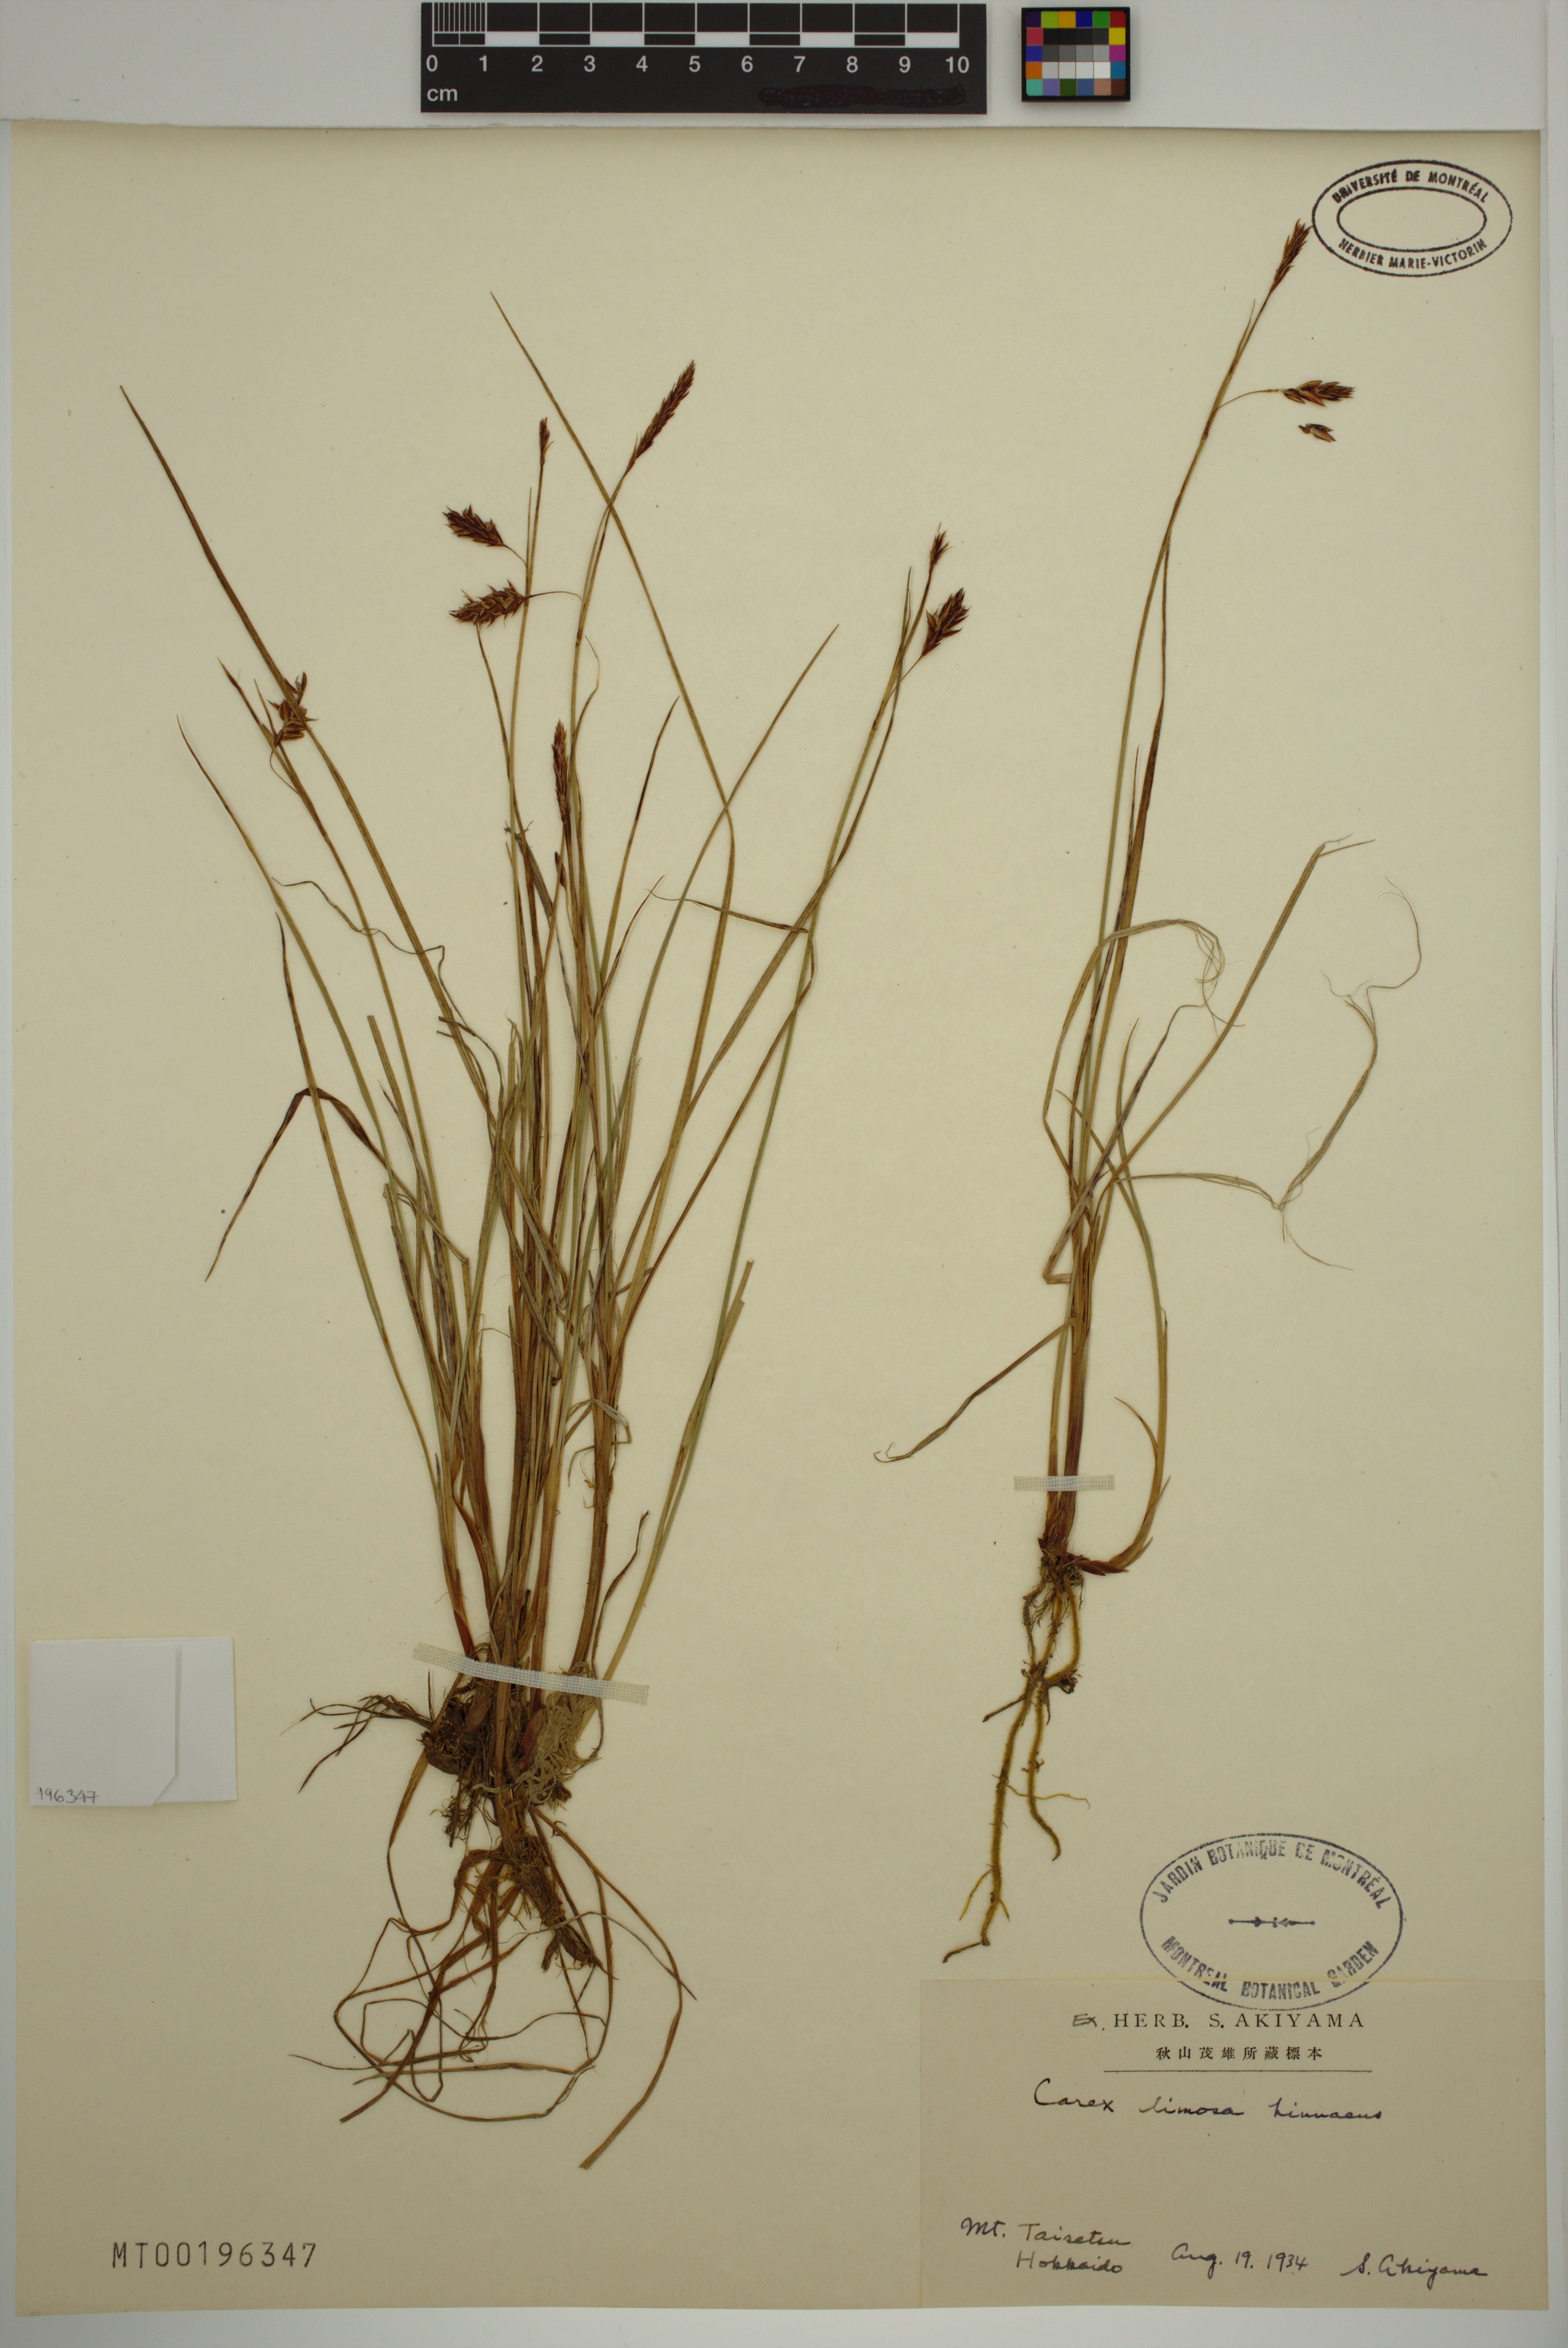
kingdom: Plantae
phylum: Tracheophyta
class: Liliopsida
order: Poales
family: Cyperaceae
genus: Carex
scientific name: Carex limosa
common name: Bog sedge
